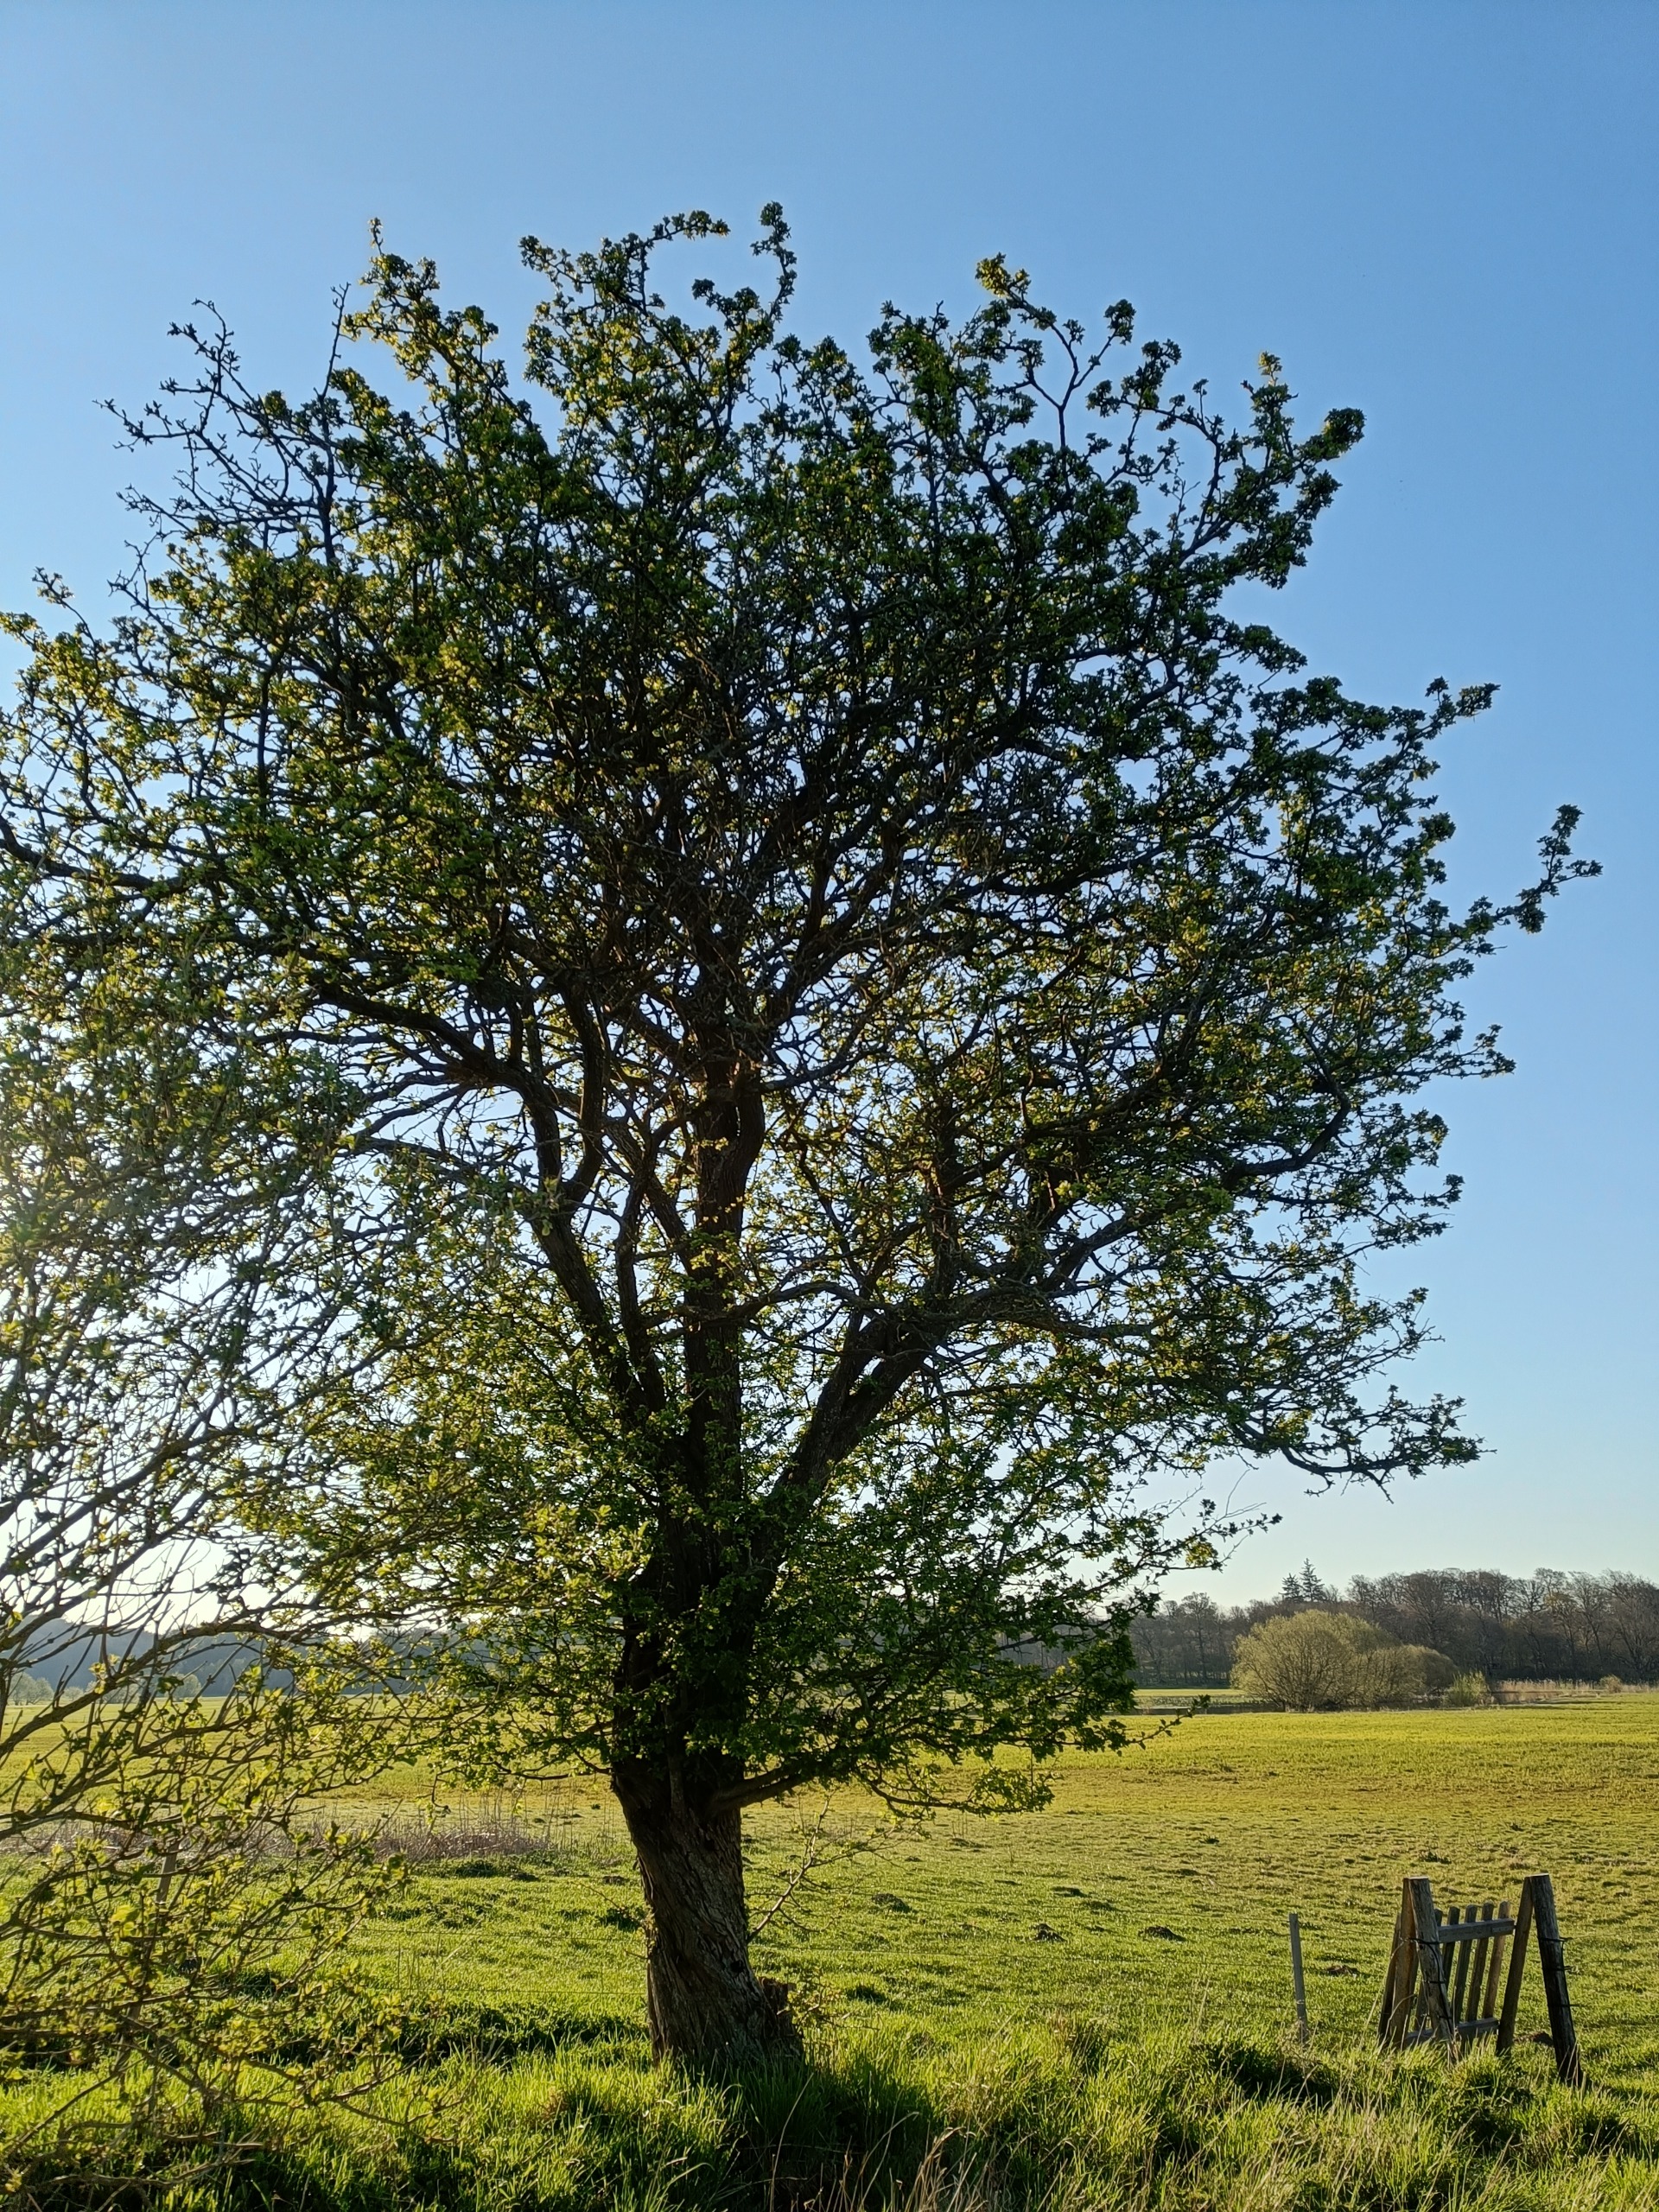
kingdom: Plantae
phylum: Tracheophyta
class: Magnoliopsida
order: Rosales
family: Rosaceae
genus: Crataegus
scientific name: Crataegus monogyna
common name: Engriflet hvidtjørn
